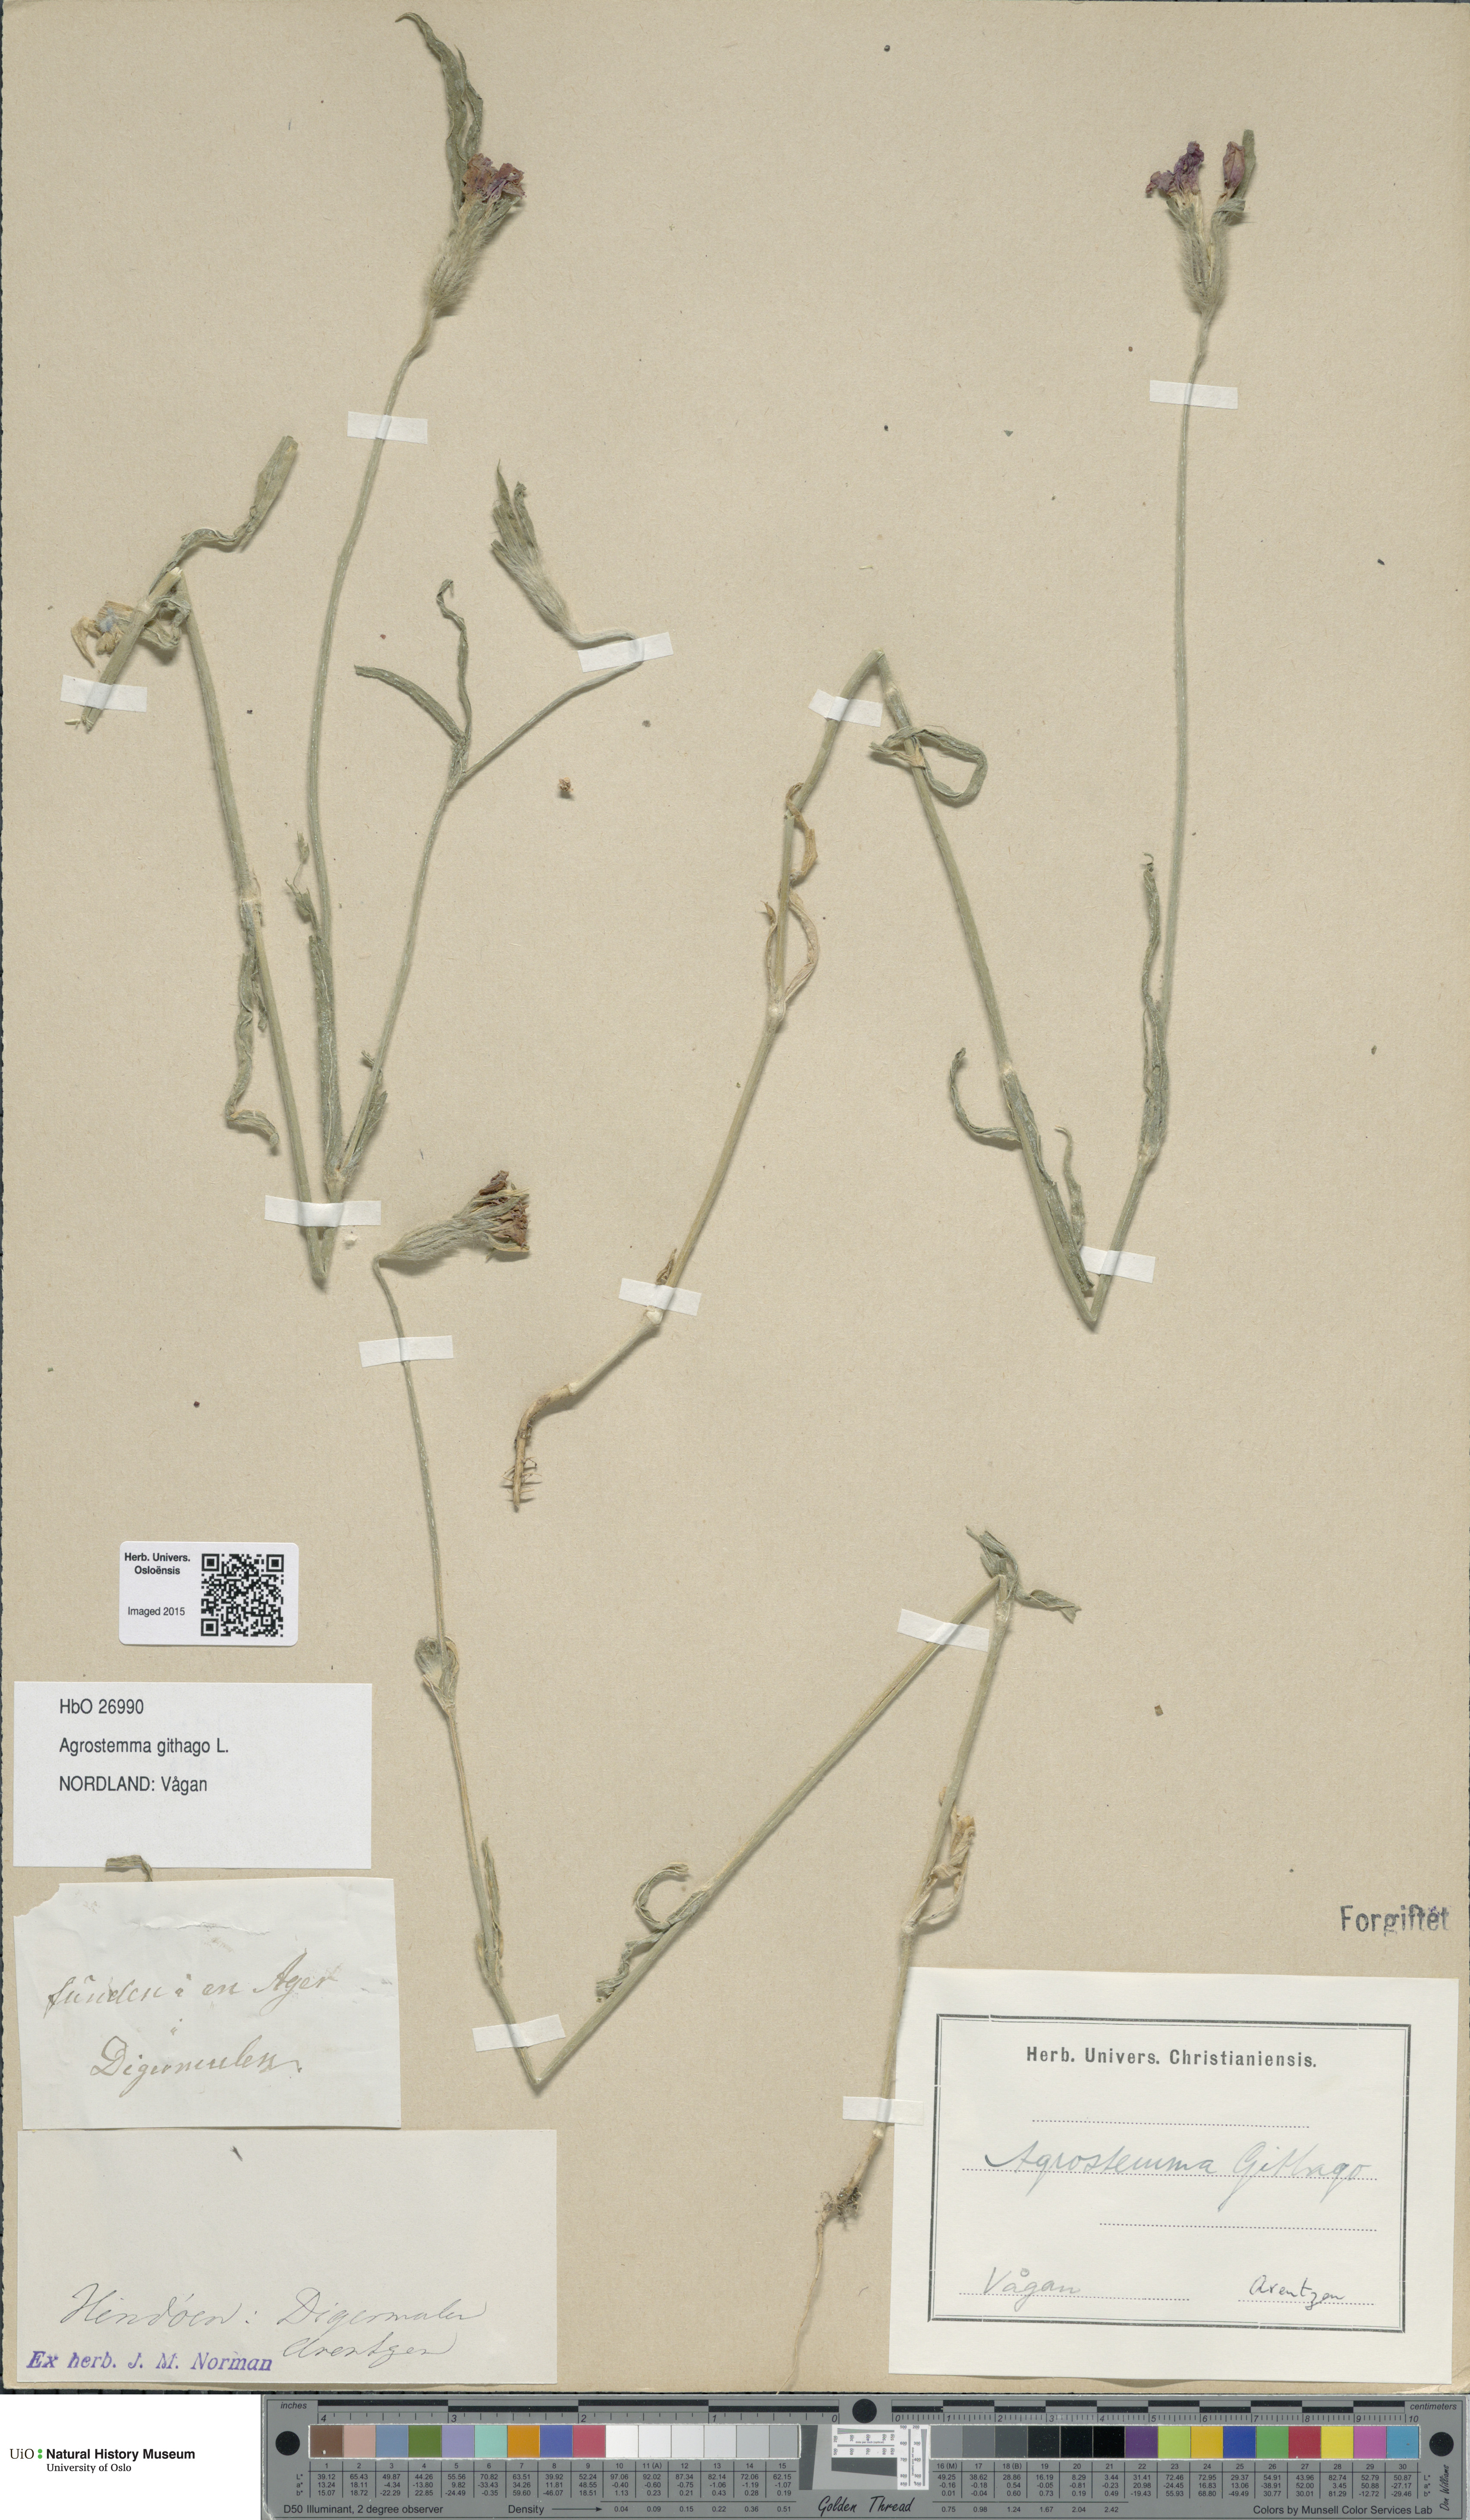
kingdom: Plantae
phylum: Tracheophyta
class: Magnoliopsida
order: Caryophyllales
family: Caryophyllaceae
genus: Agrostemma
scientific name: Agrostemma githago
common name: Common corncockle
